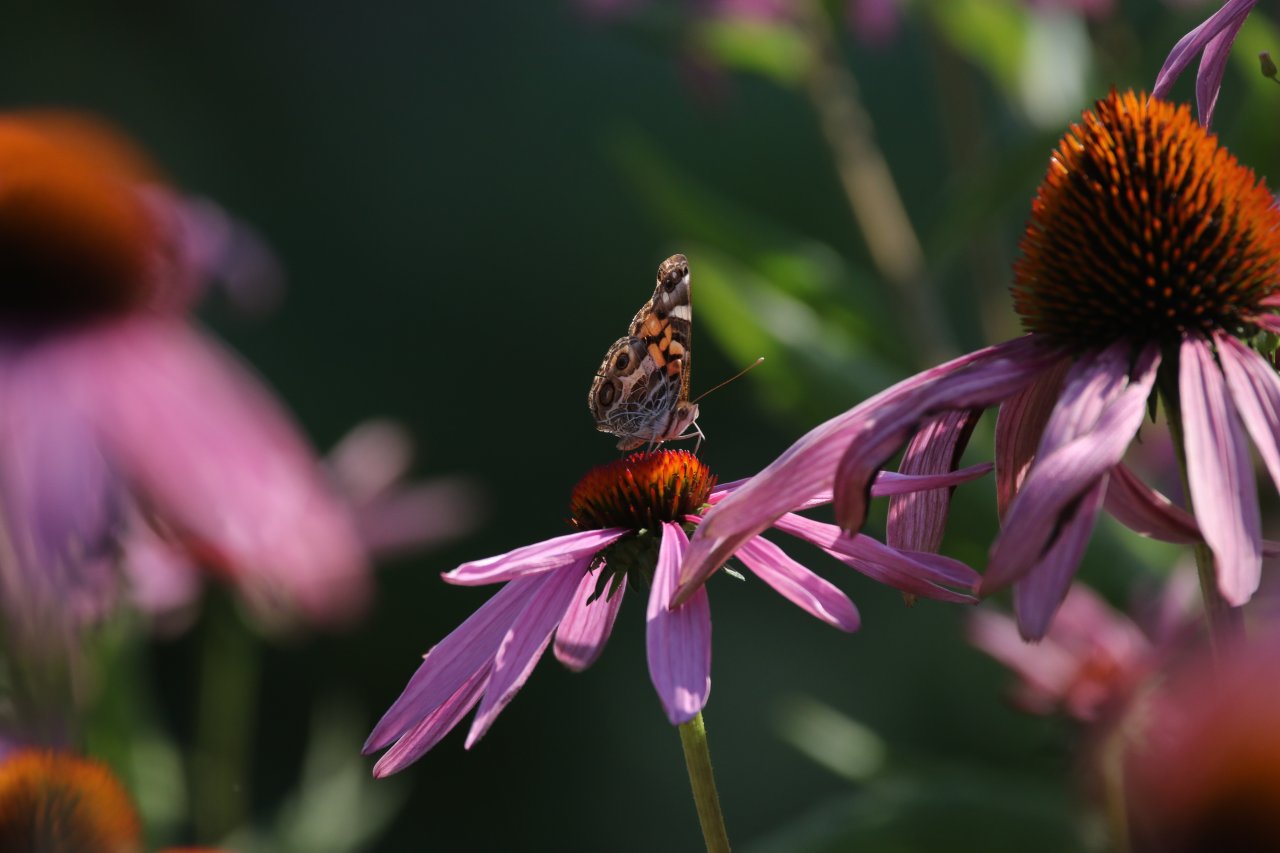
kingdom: Animalia
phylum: Arthropoda
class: Insecta
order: Lepidoptera
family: Nymphalidae
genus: Vanessa
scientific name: Vanessa virginiensis
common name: American Lady
